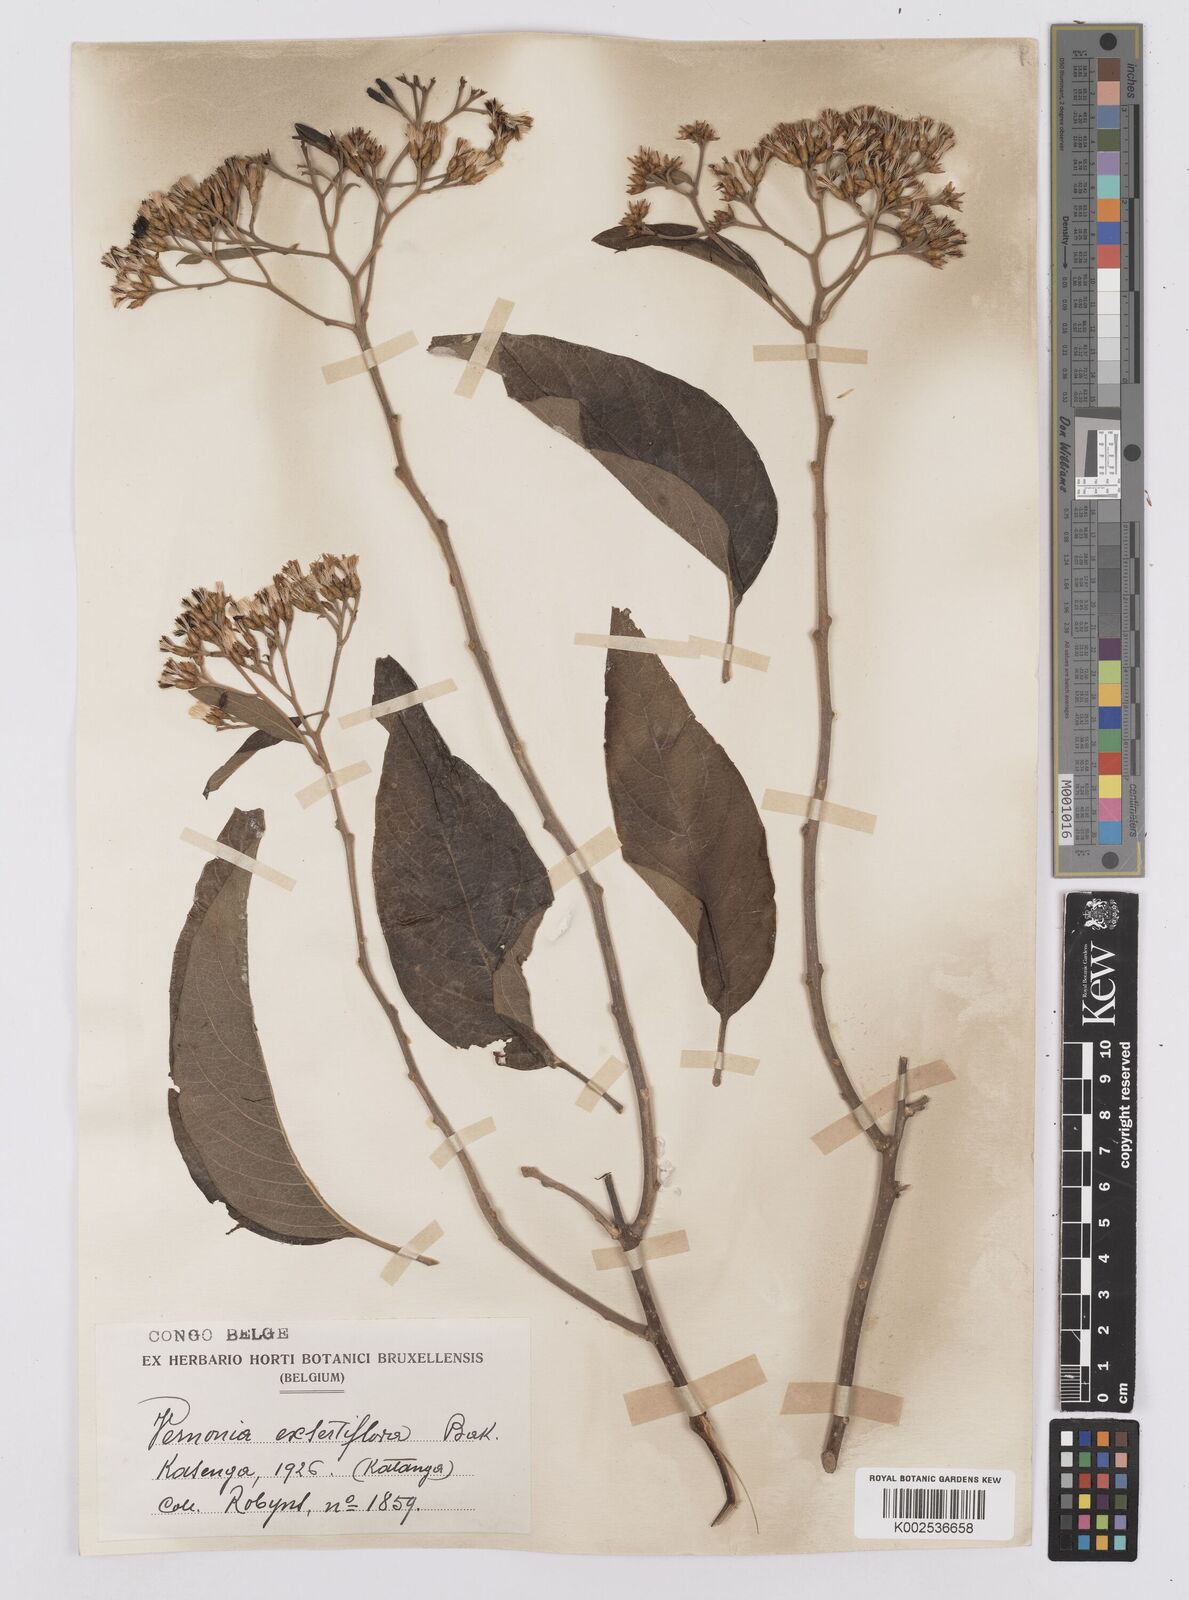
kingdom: Plantae
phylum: Tracheophyta
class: Magnoliopsida
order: Asterales
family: Asteraceae
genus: Gymnanthemum
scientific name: Gymnanthemum exsertiflorum
